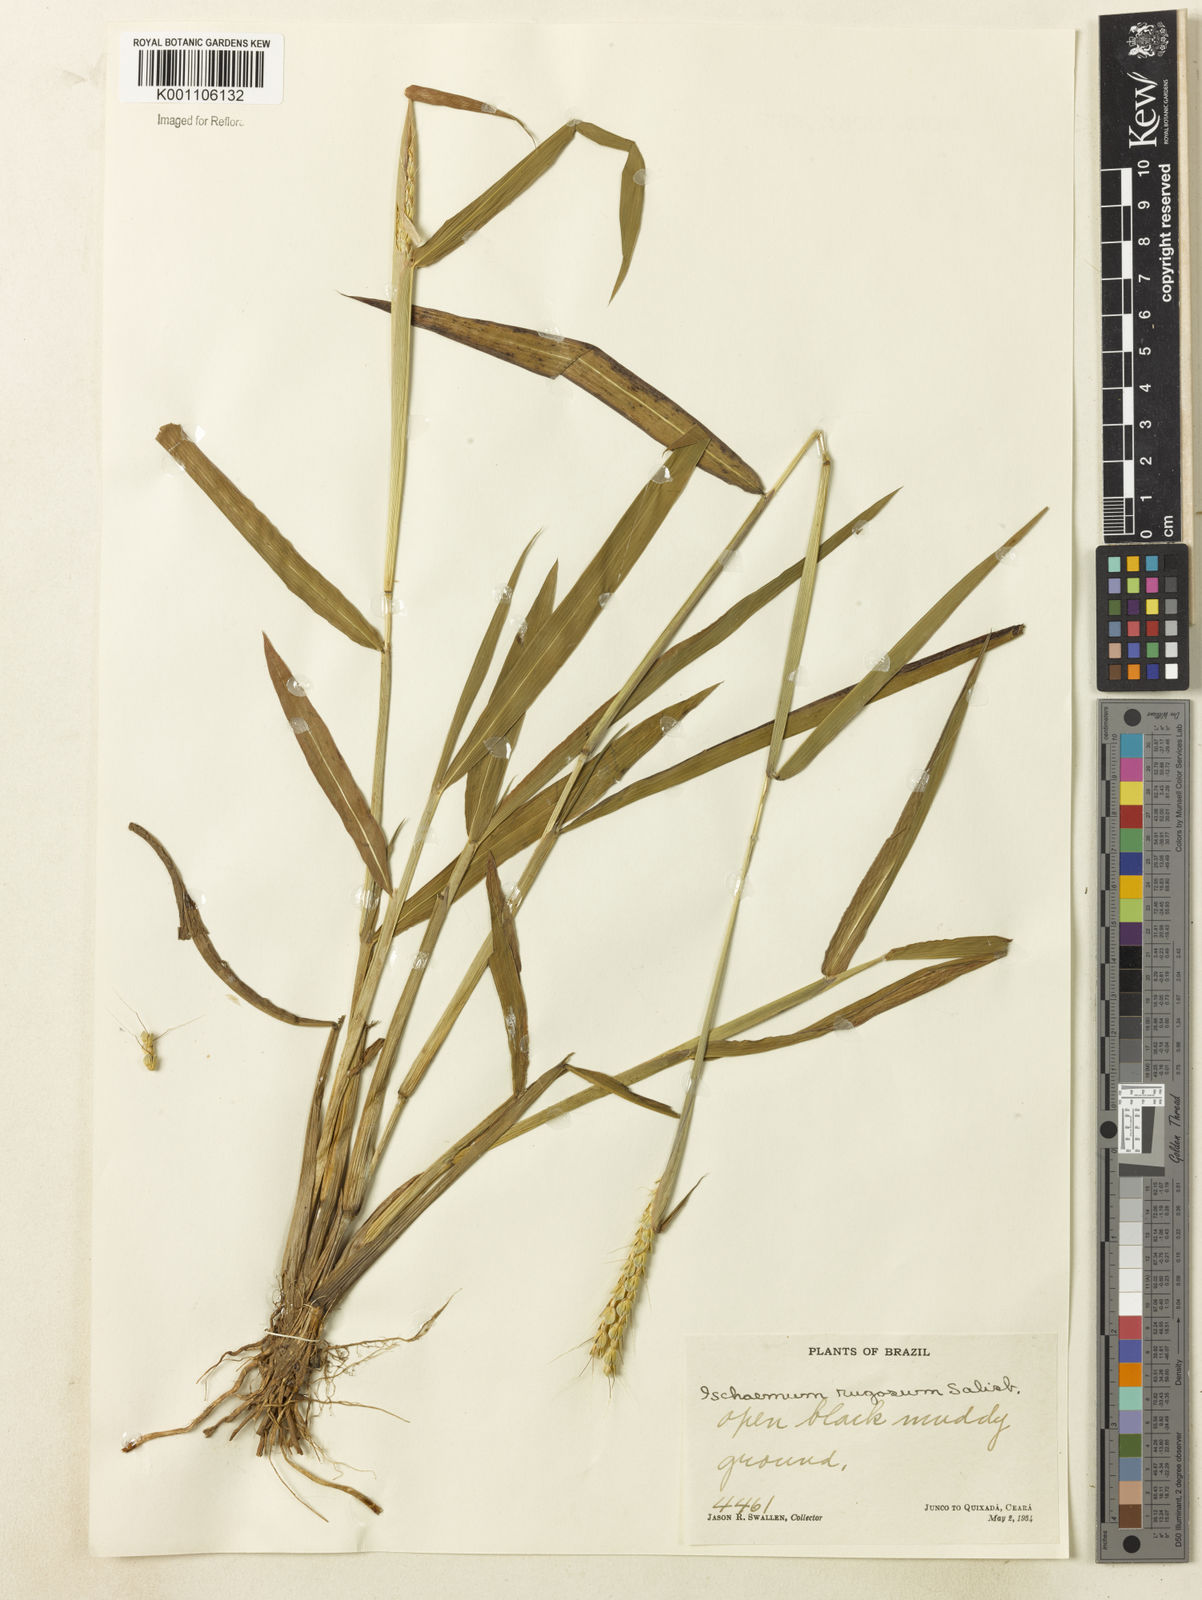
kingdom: Plantae
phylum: Tracheophyta
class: Liliopsida
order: Poales
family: Poaceae
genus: Ischaemum
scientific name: Ischaemum rugosum
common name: Saramatta grass
